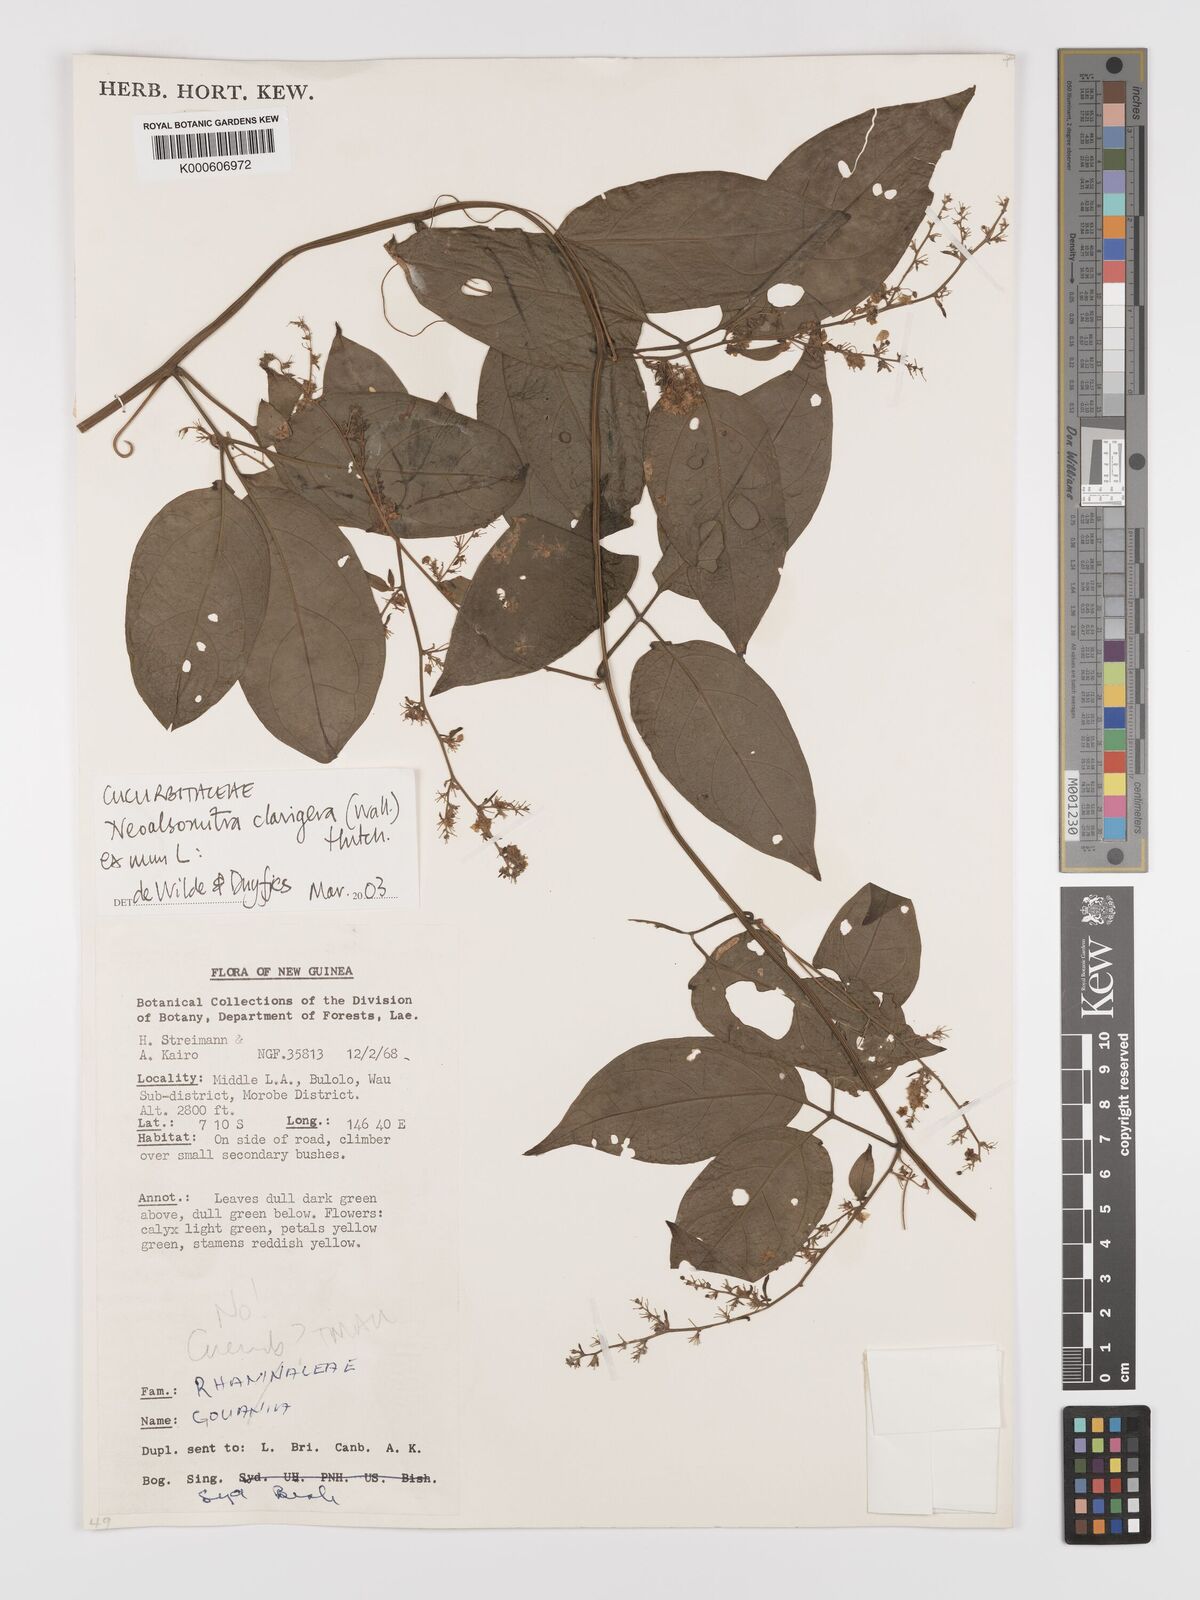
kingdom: Plantae
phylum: Tracheophyta
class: Magnoliopsida
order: Cucurbitales
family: Cucurbitaceae
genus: Neoalsomitra
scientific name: Neoalsomitra clavigera
